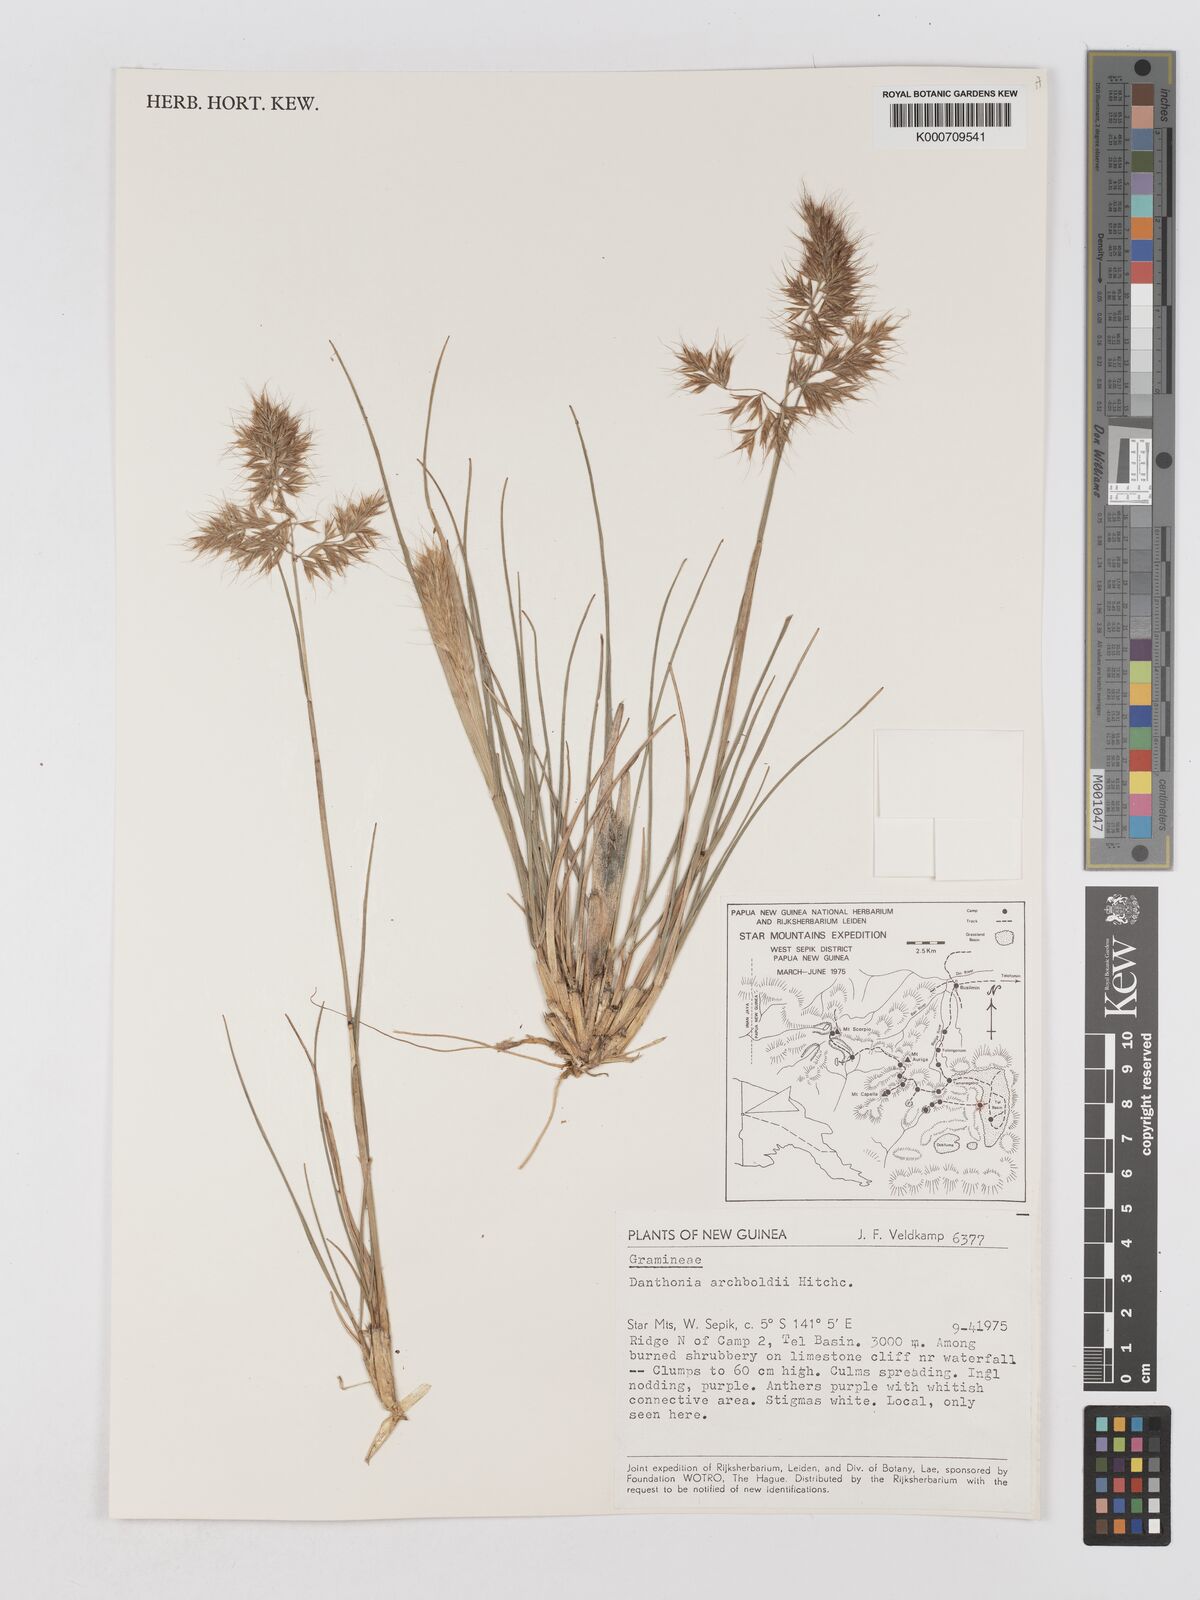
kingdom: Plantae
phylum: Tracheophyta
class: Liliopsida
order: Poales
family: Poaceae
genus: Chimaerochloa
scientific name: Chimaerochloa archboldii
